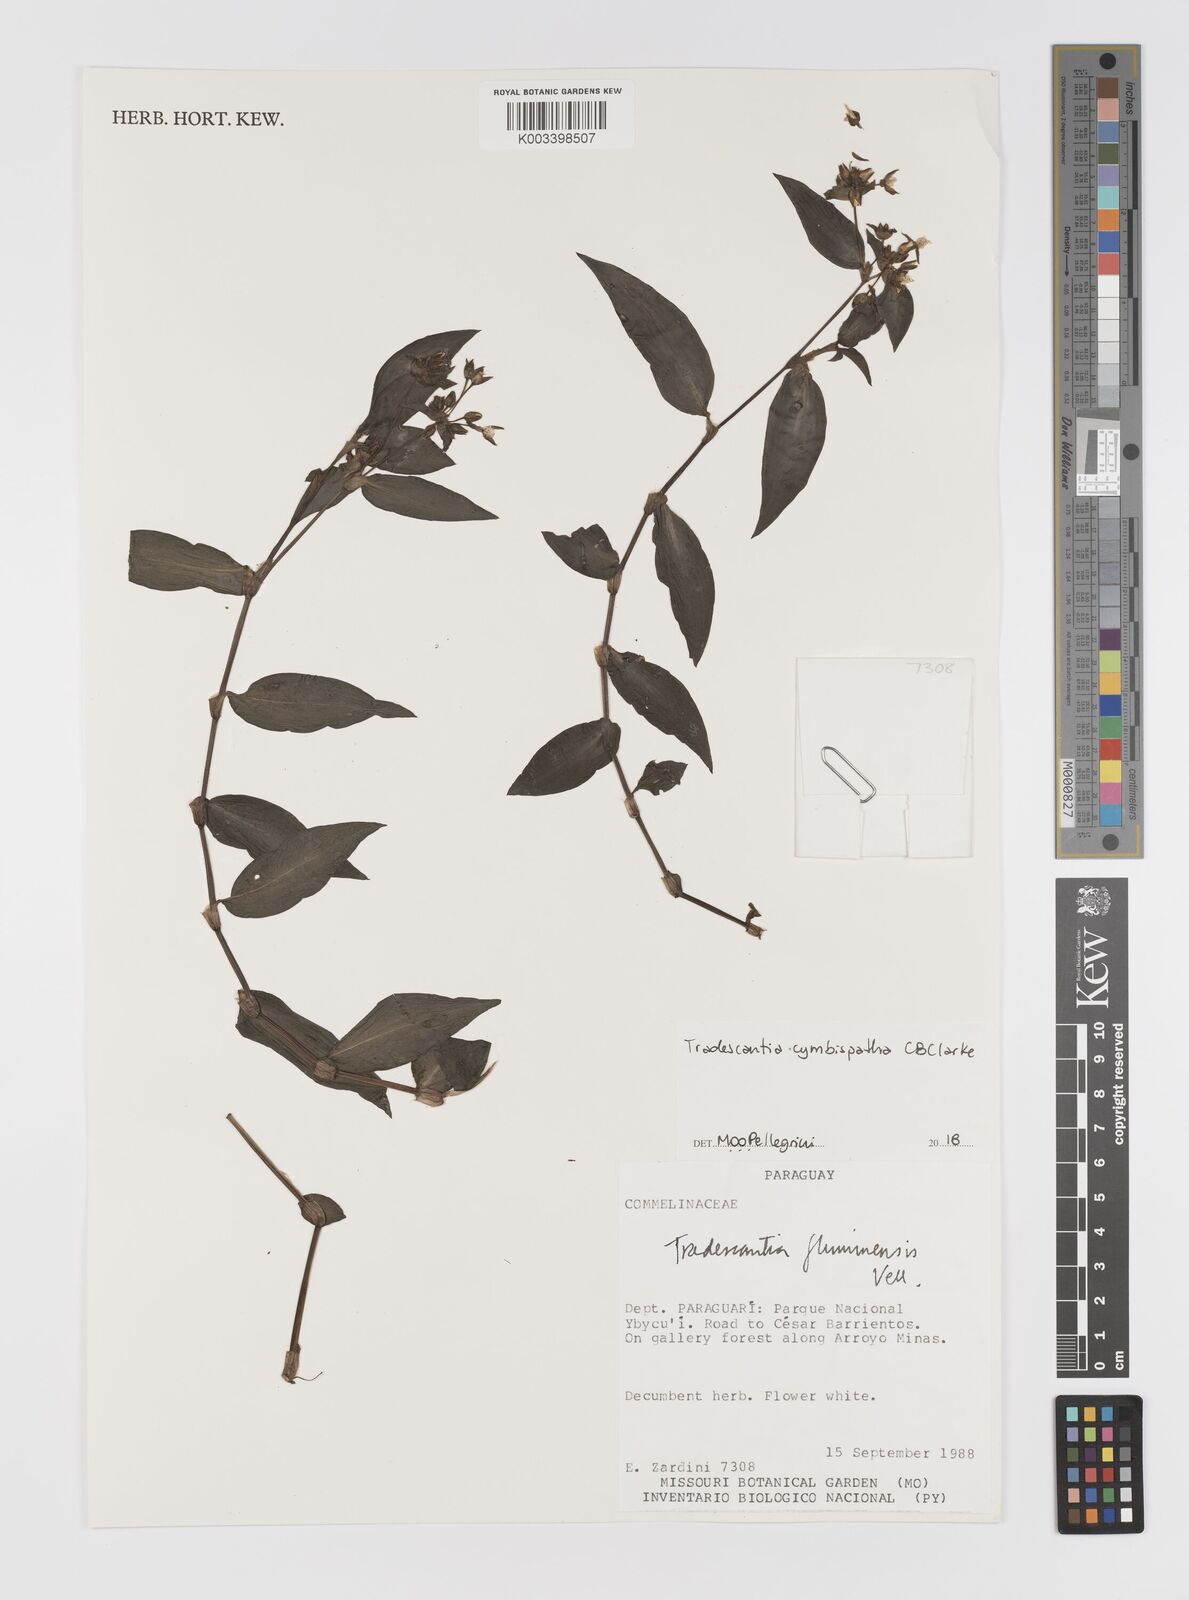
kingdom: Plantae
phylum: Tracheophyta
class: Liliopsida
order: Commelinales
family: Commelinaceae
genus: Tradescantia
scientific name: Tradescantia cymbispatha
